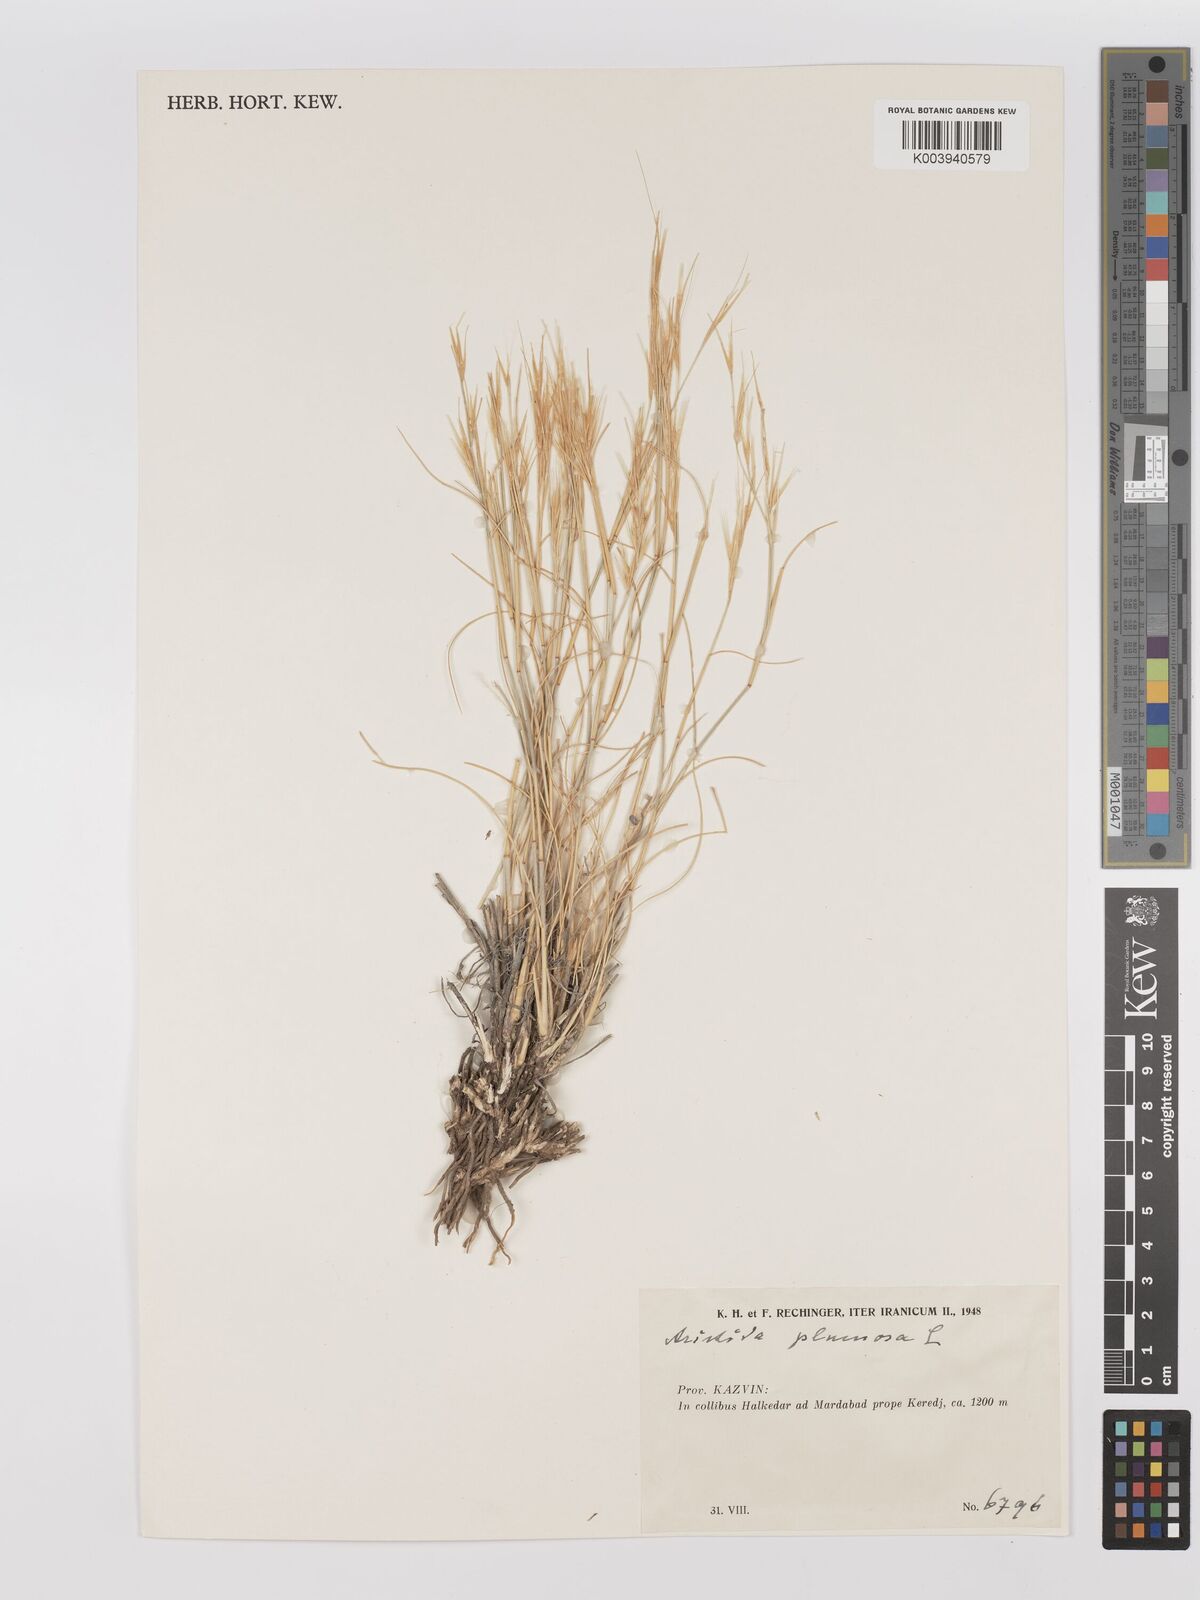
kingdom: Plantae
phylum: Tracheophyta
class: Liliopsida
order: Poales
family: Poaceae
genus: Stipagrostis
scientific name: Stipagrostis plumosa
